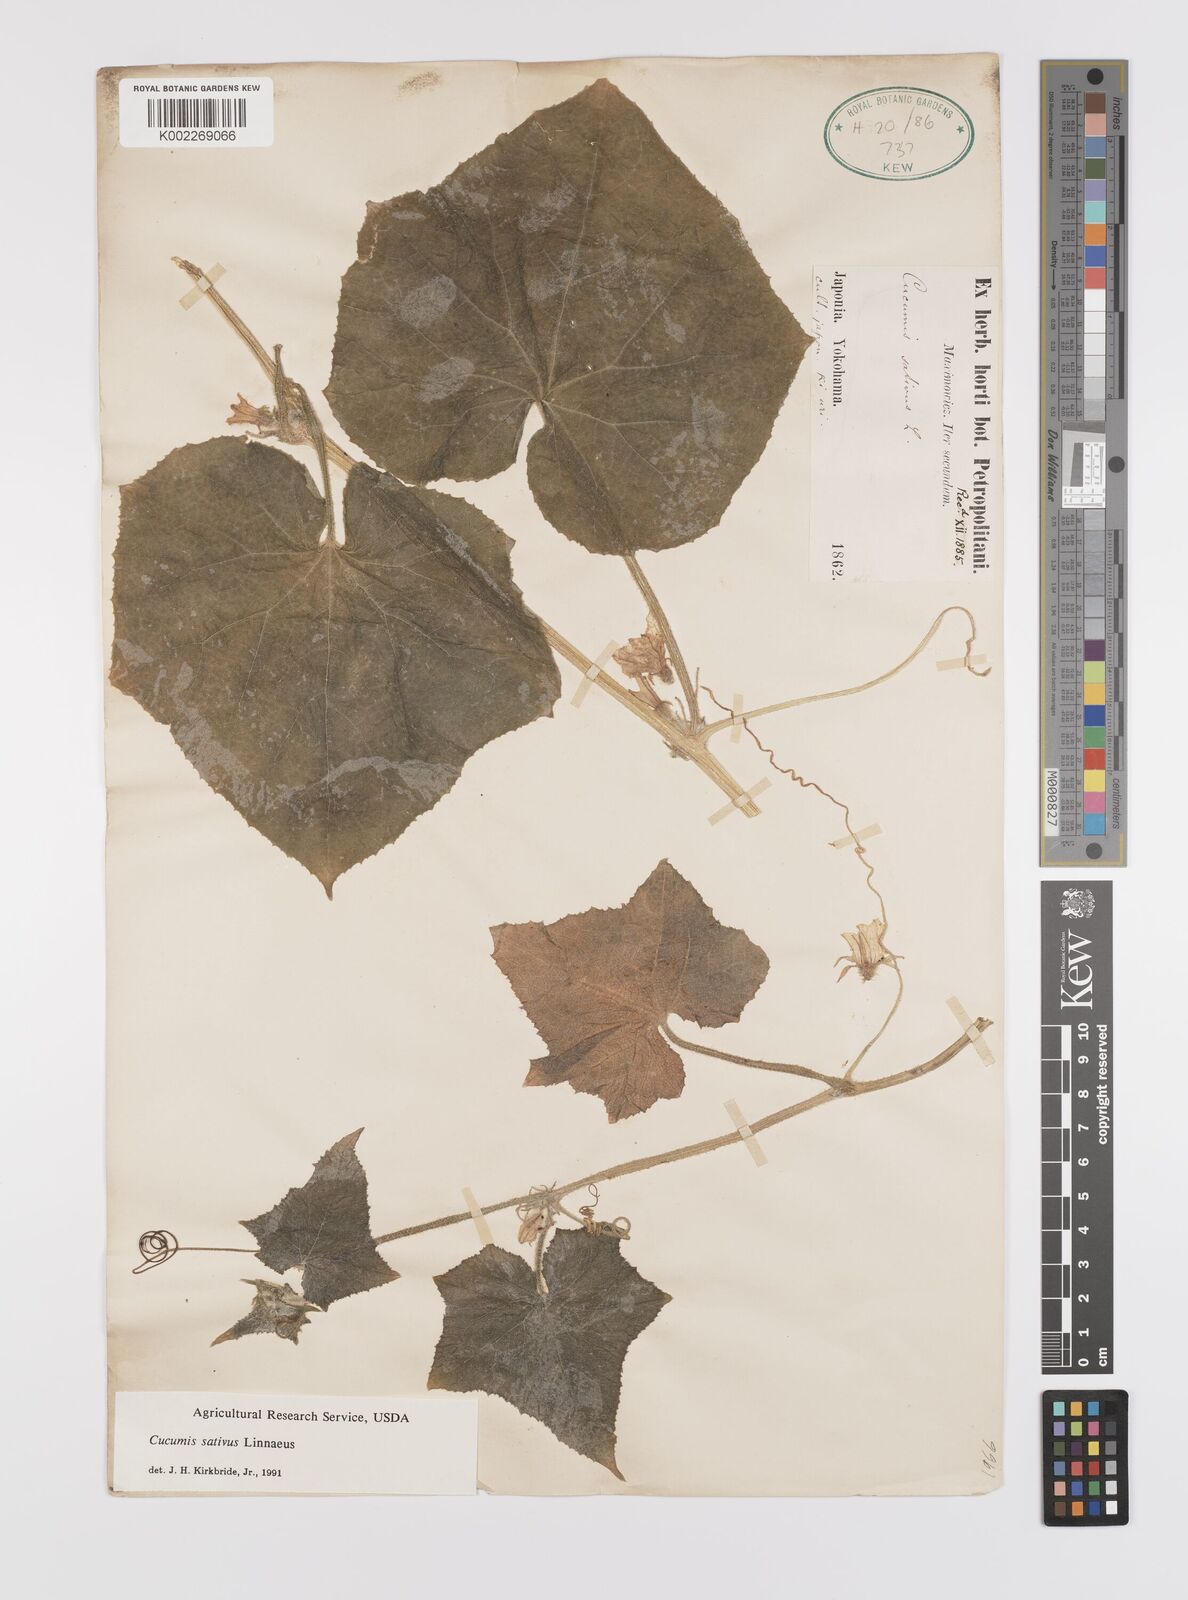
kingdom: Plantae
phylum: Tracheophyta
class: Magnoliopsida
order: Cucurbitales
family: Cucurbitaceae
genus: Cucumis
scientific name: Cucumis sativus
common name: Cucumber
